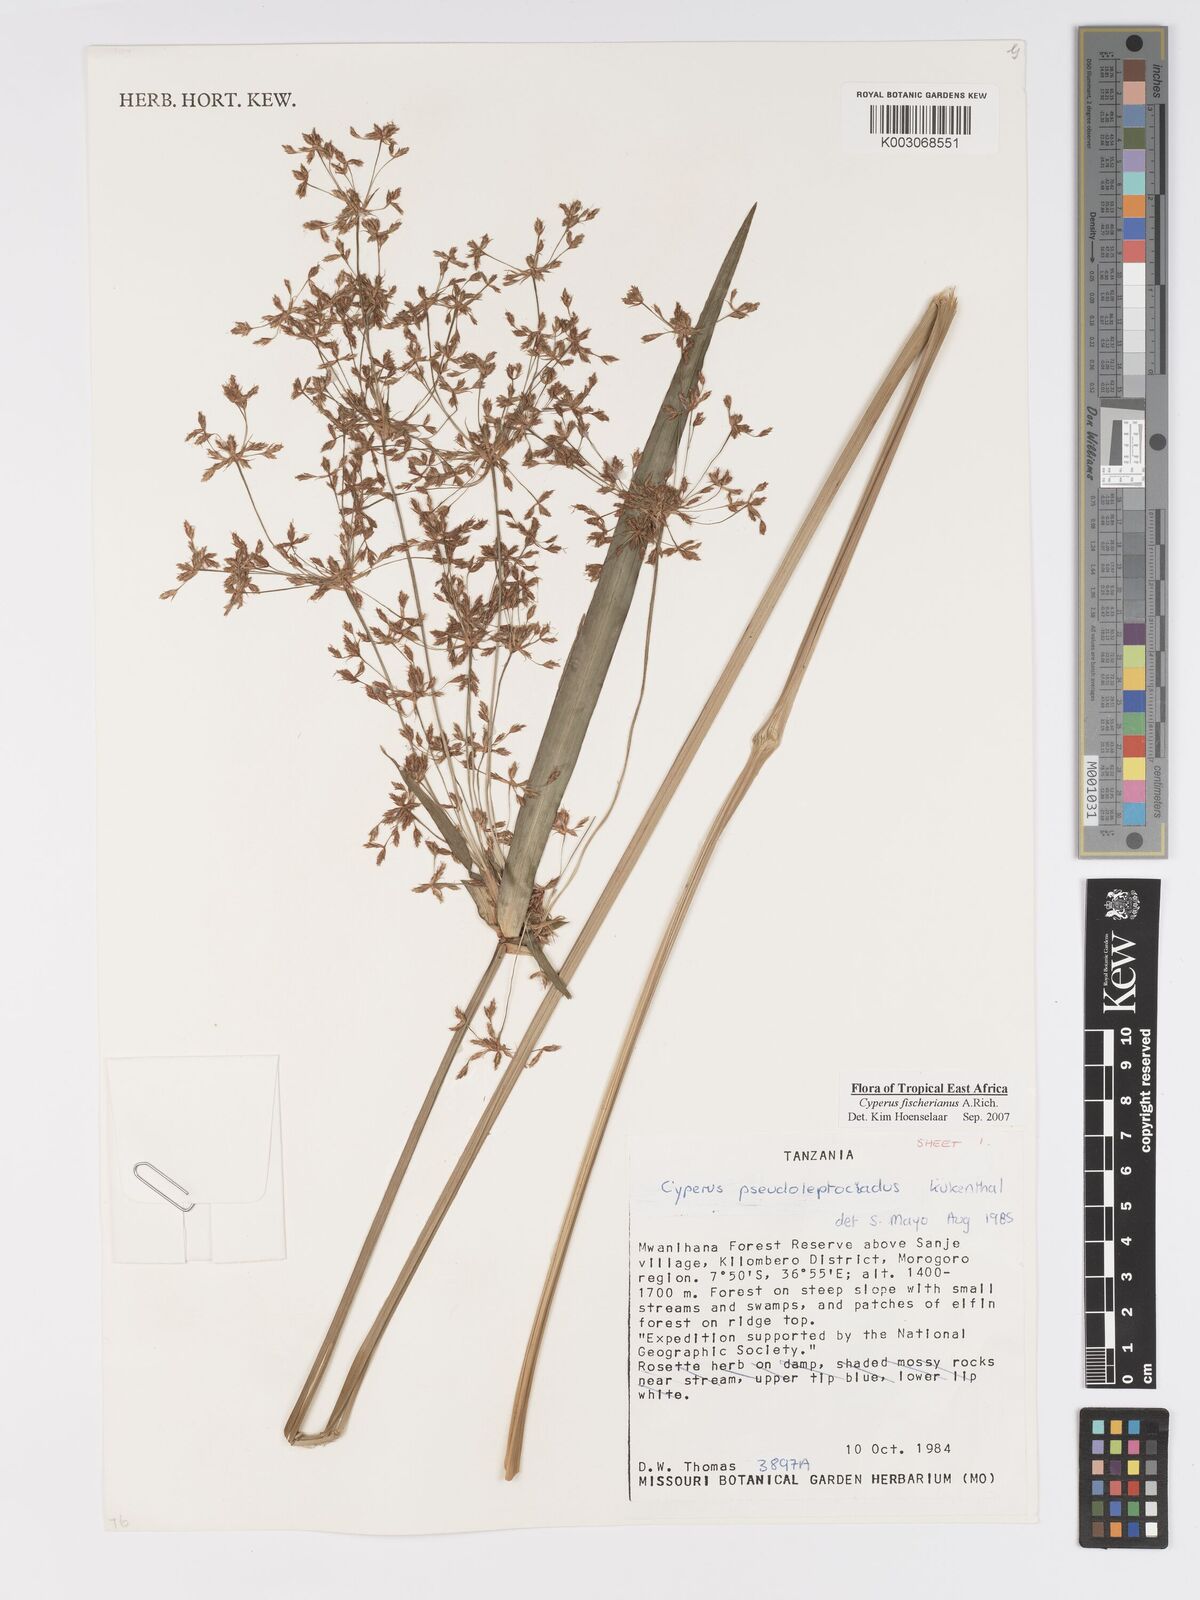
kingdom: Plantae
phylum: Tracheophyta
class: Liliopsida
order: Poales
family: Cyperaceae
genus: Cyperus
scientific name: Cyperus fischerianus
